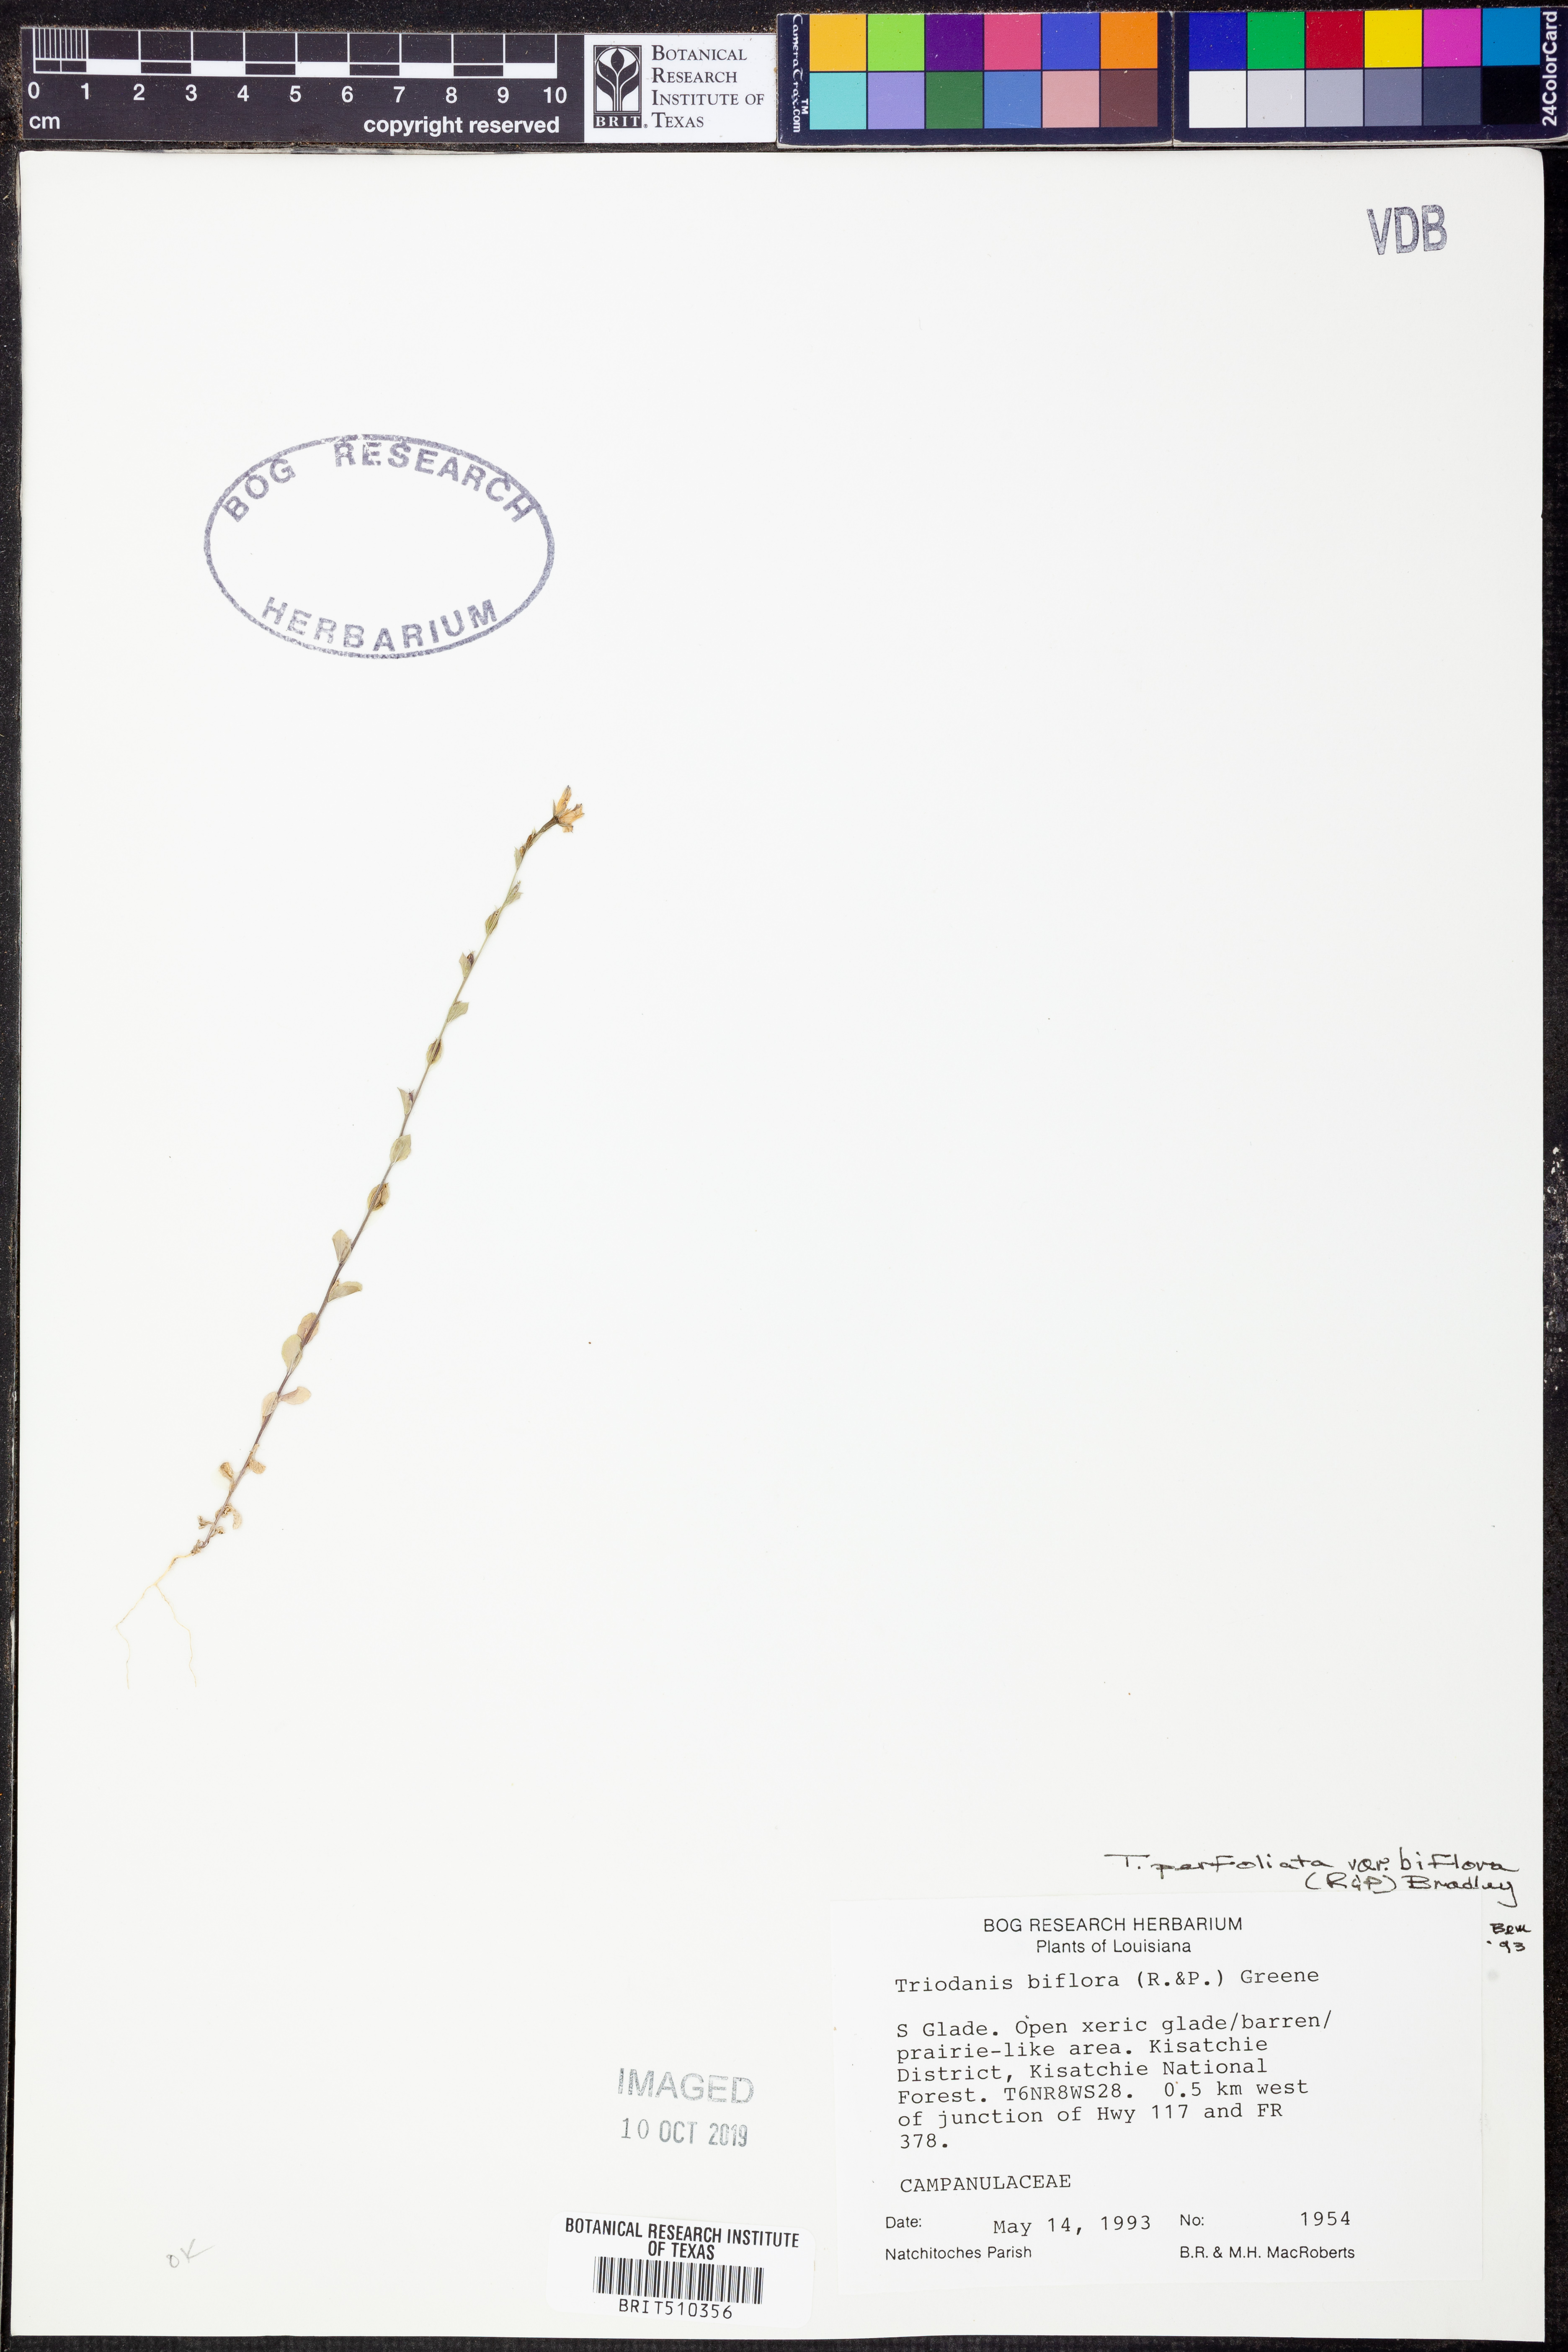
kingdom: Plantae
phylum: Tracheophyta
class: Magnoliopsida
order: Asterales
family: Campanulaceae
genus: Triodanis
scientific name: Triodanis perfoliata
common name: Clasping venus' looking-glass
